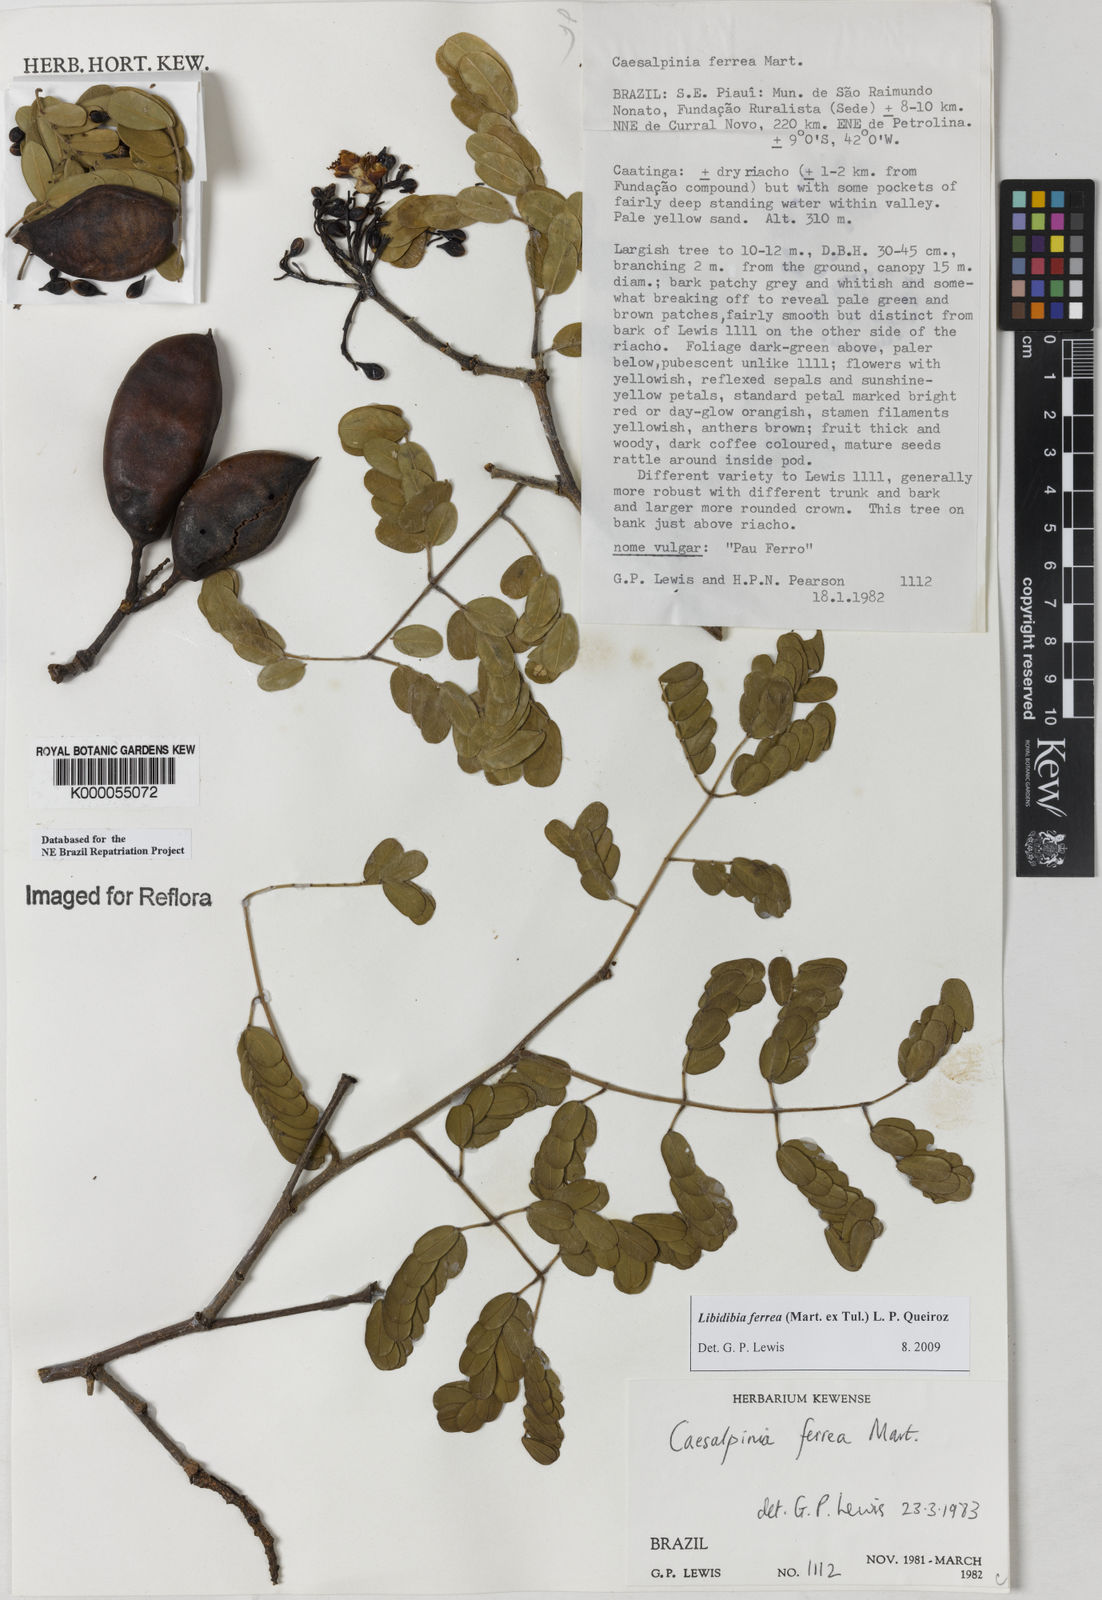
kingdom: Plantae
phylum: Tracheophyta
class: Magnoliopsida
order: Fabales
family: Fabaceae
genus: Libidibia
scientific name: Libidibia ferrea
